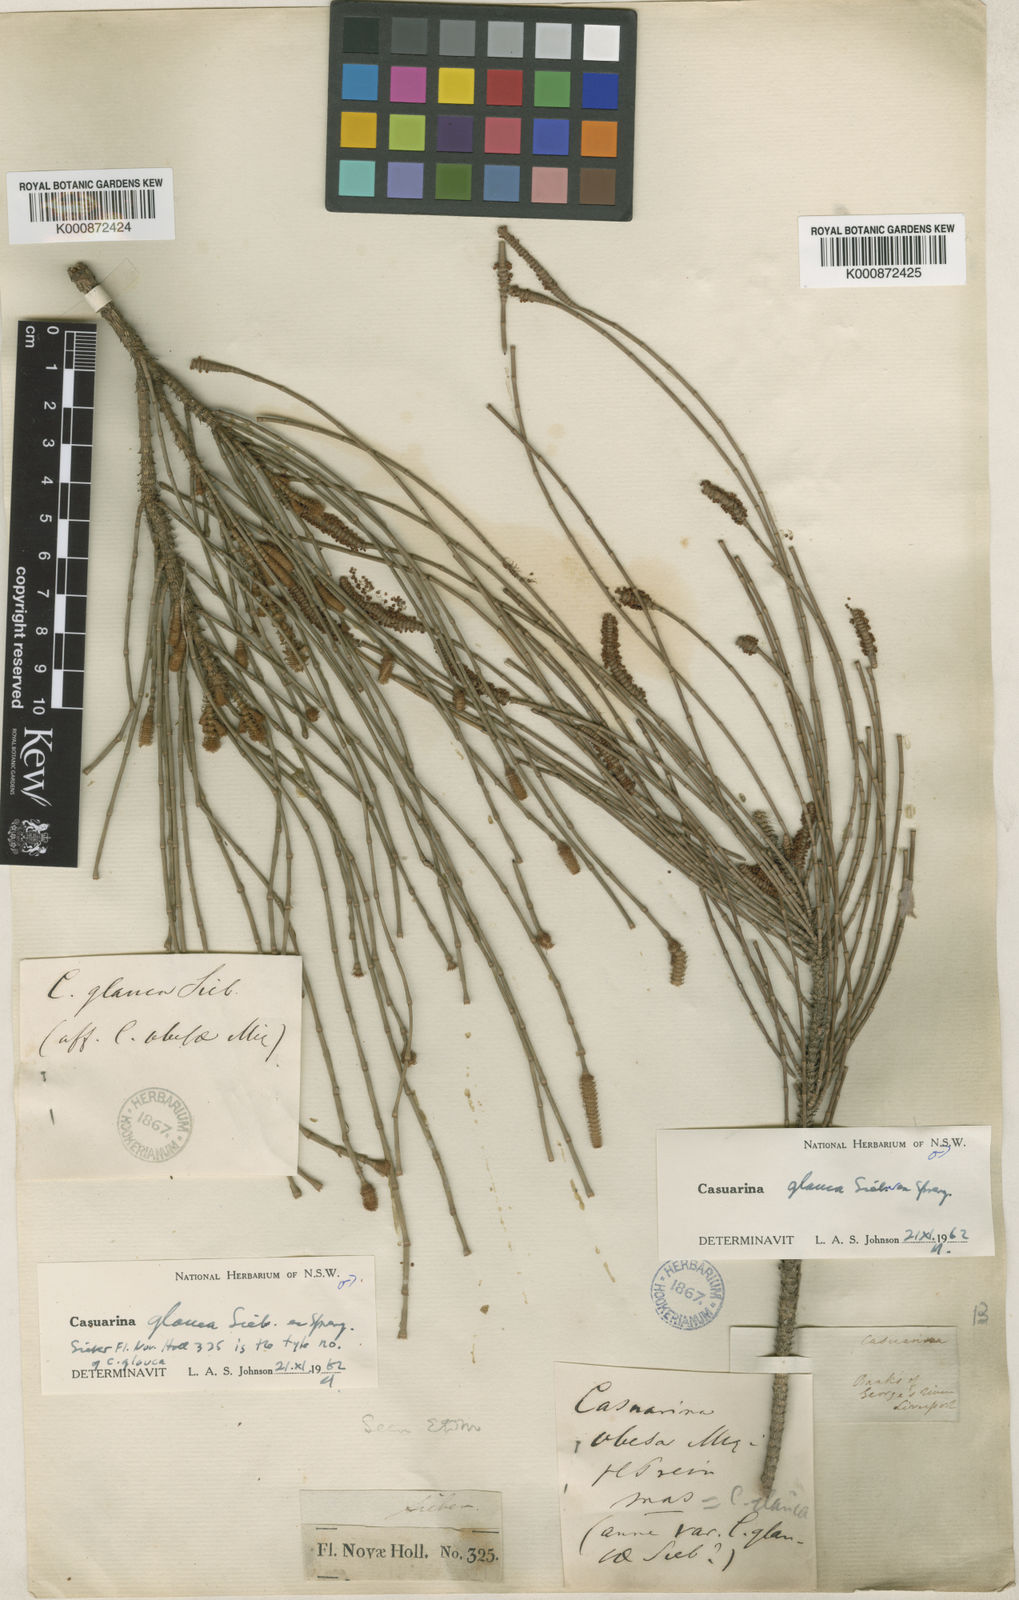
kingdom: Plantae
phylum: Tracheophyta
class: Magnoliopsida
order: Fagales
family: Casuarinaceae
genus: Casuarina
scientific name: Casuarina glauca
